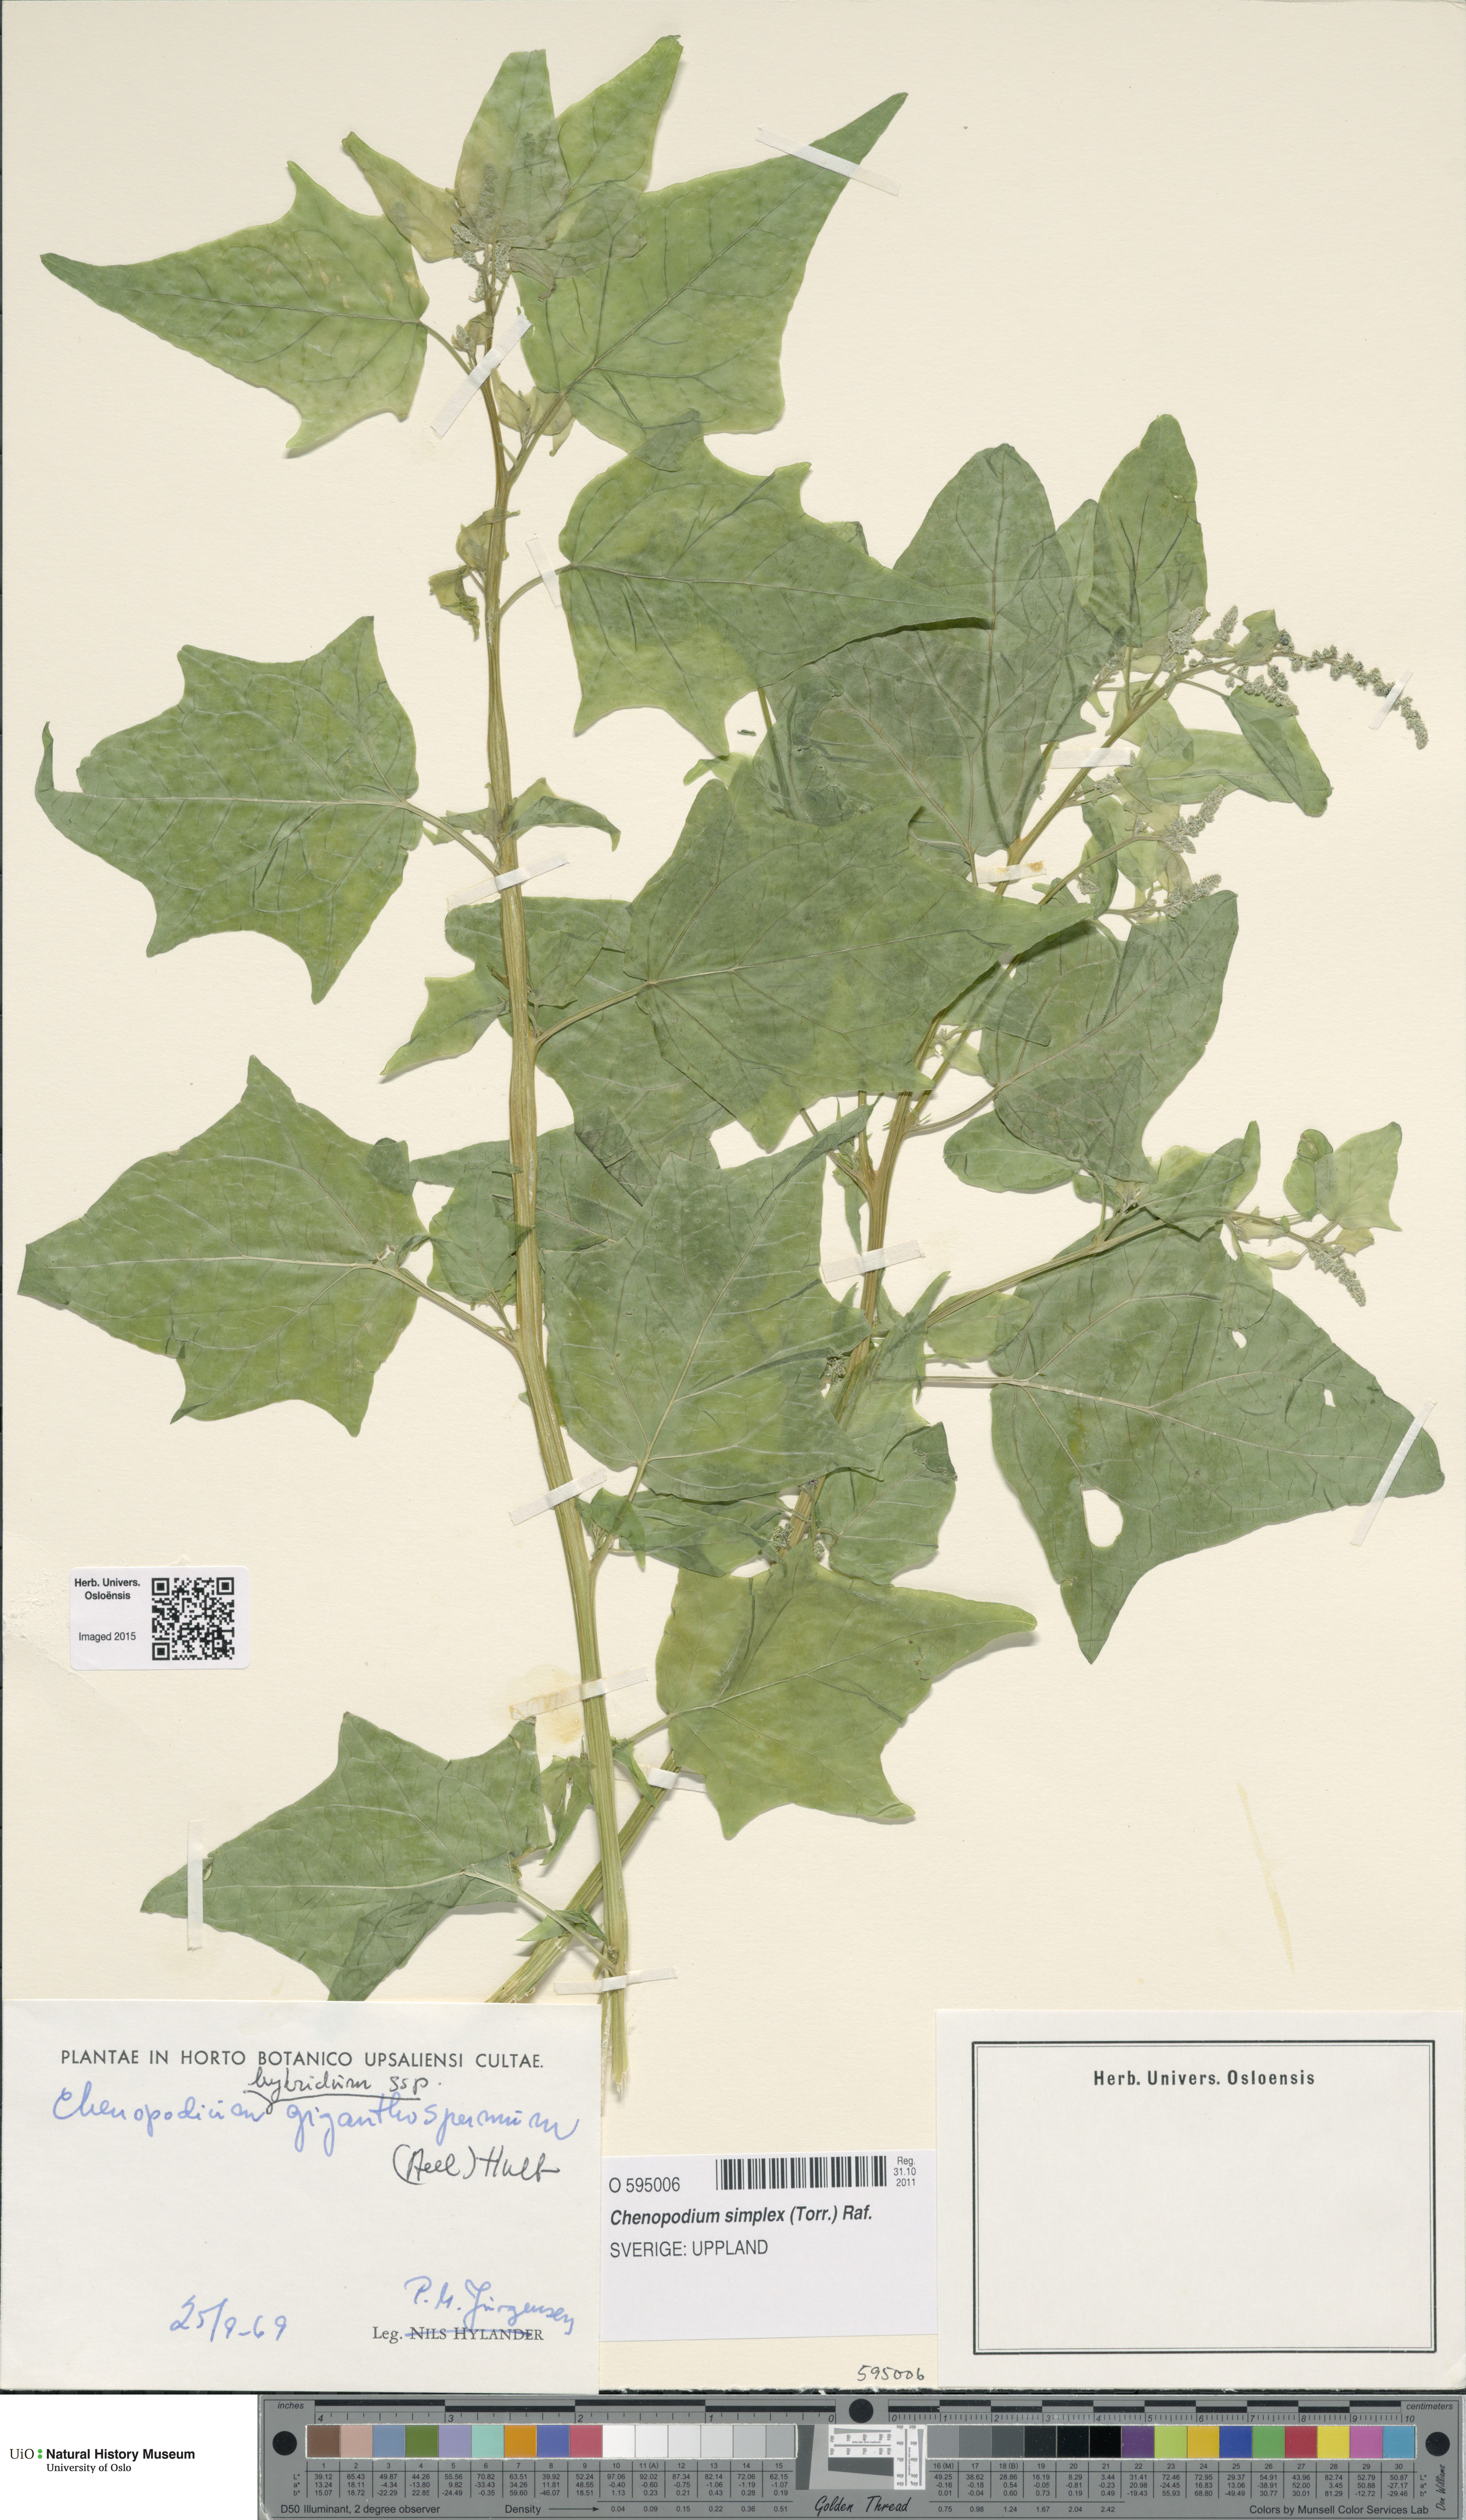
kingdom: Plantae
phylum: Tracheophyta
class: Magnoliopsida
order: Caryophyllales
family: Amaranthaceae
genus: Chenopodiastrum
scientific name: Chenopodiastrum simplex
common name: Large-seed goosefoot
